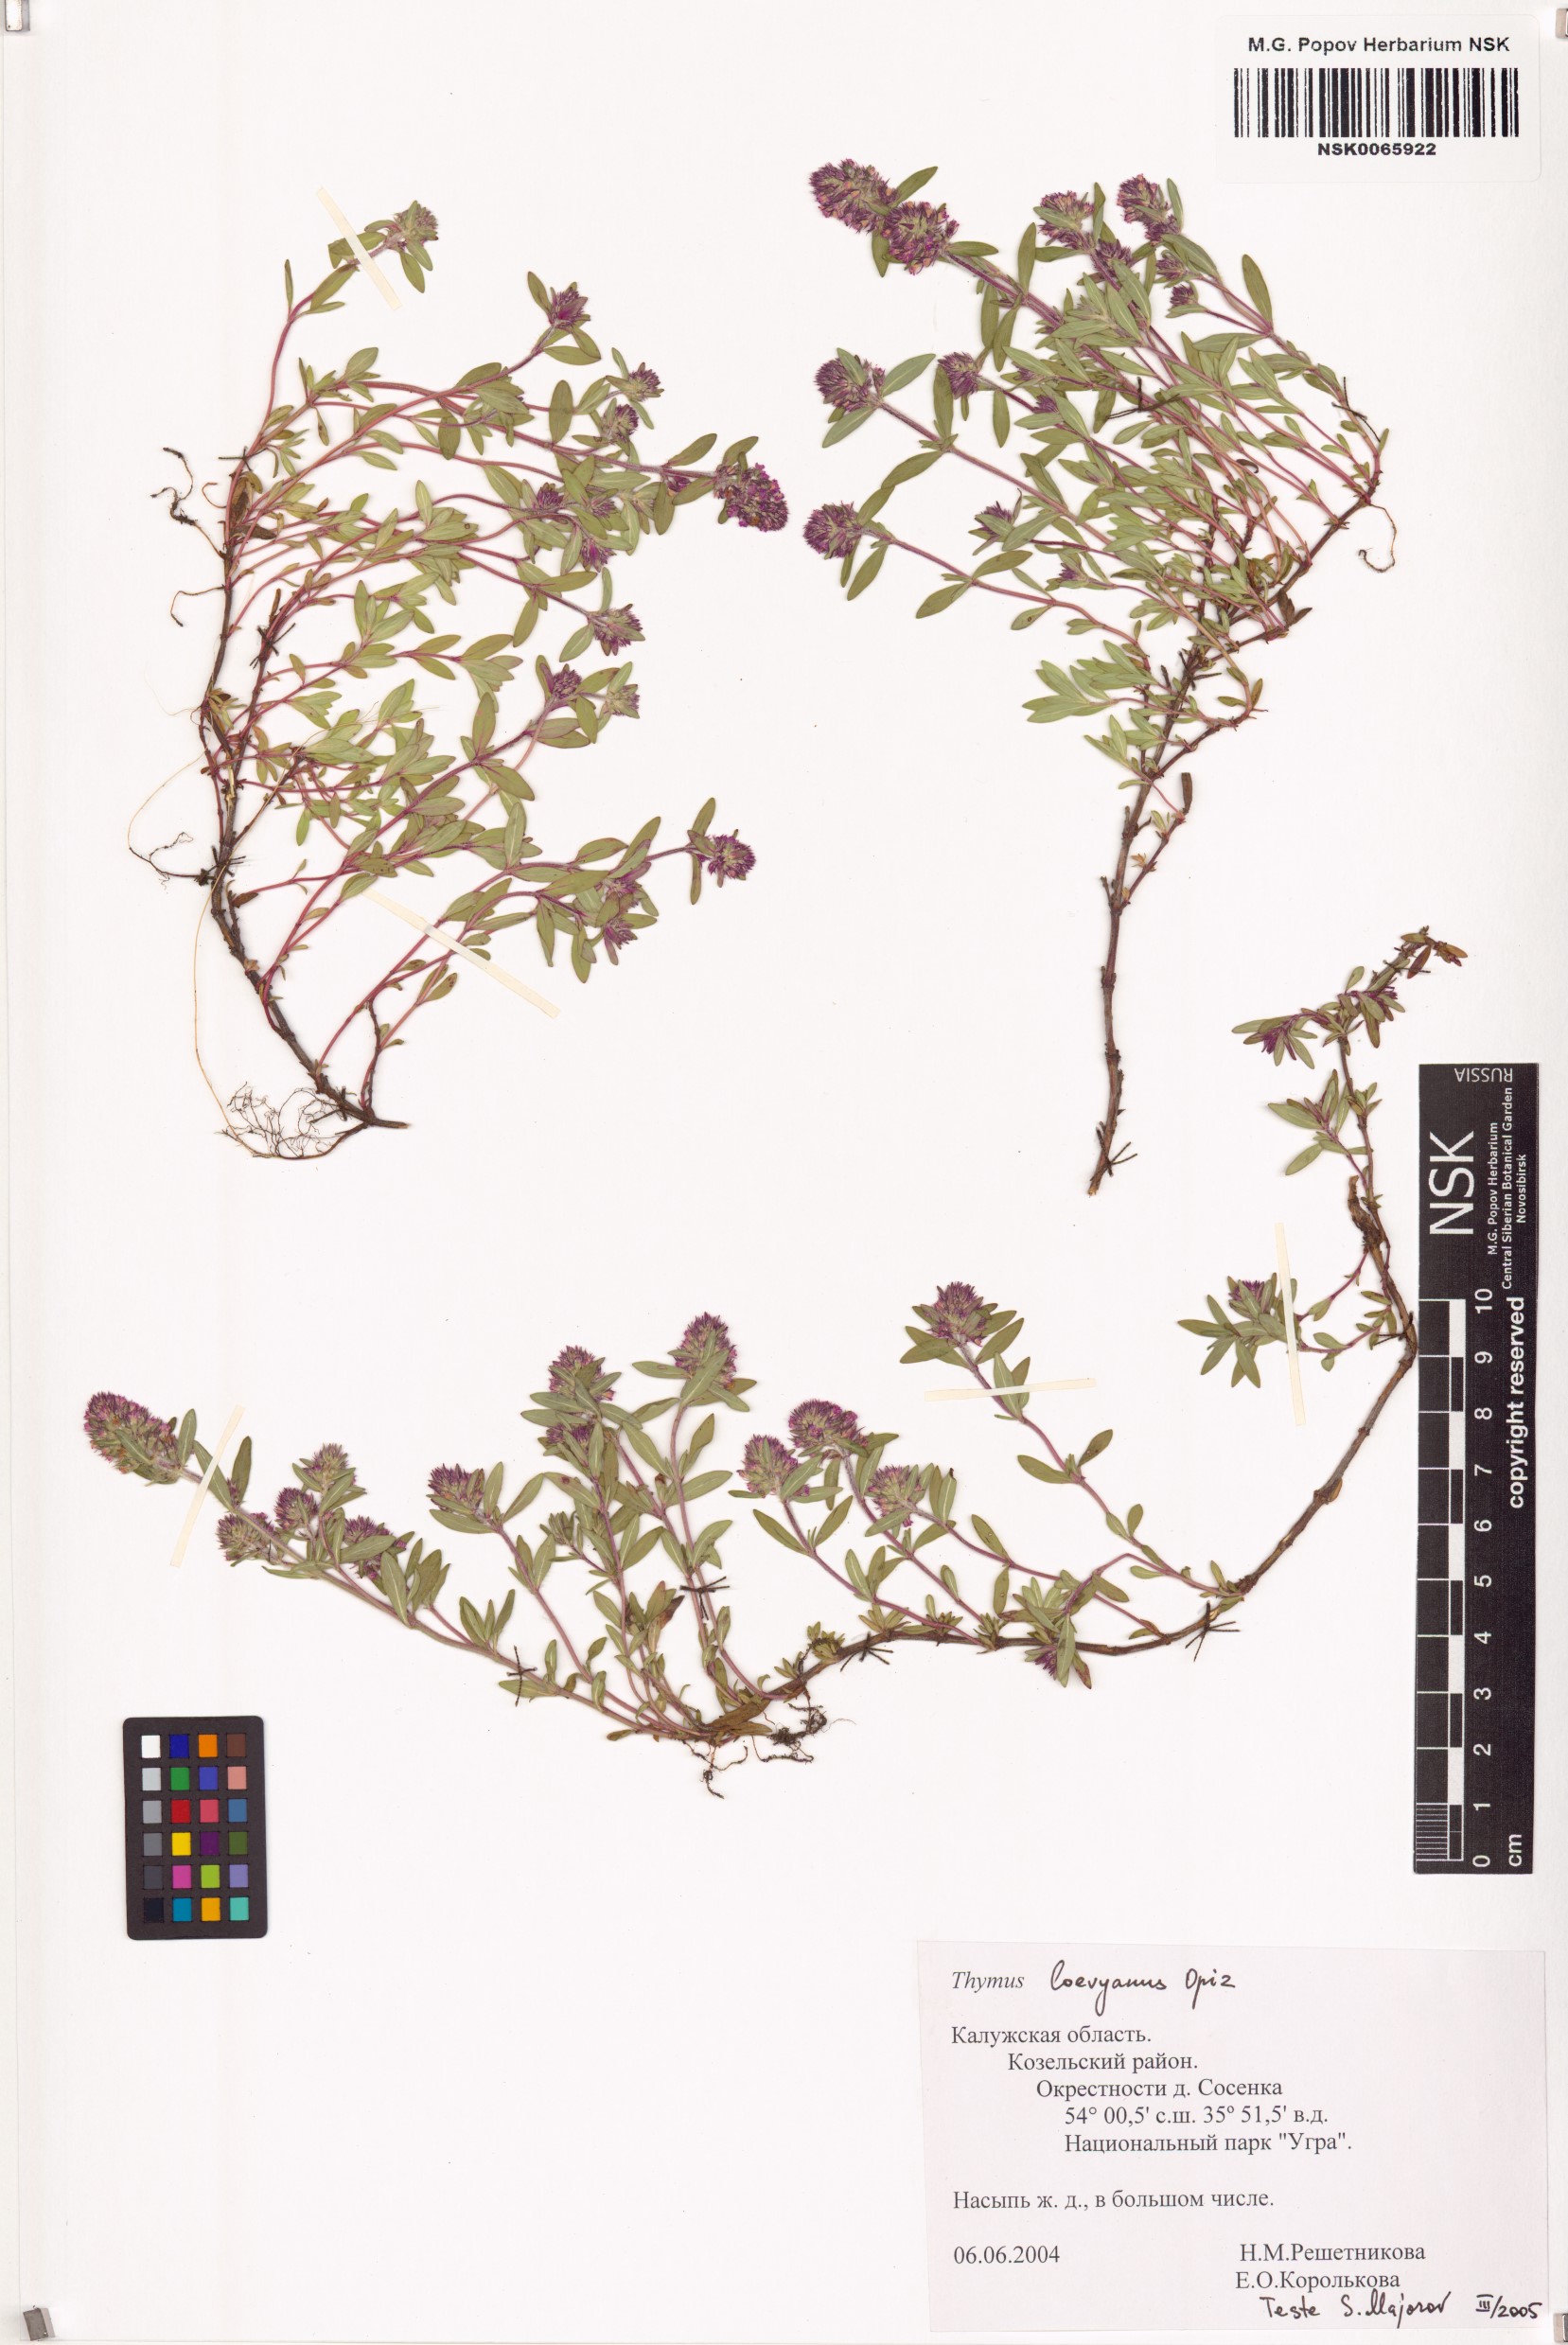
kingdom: Plantae
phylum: Tracheophyta
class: Magnoliopsida
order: Lamiales
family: Lamiaceae
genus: Thymus
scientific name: Thymus odoratissimus
